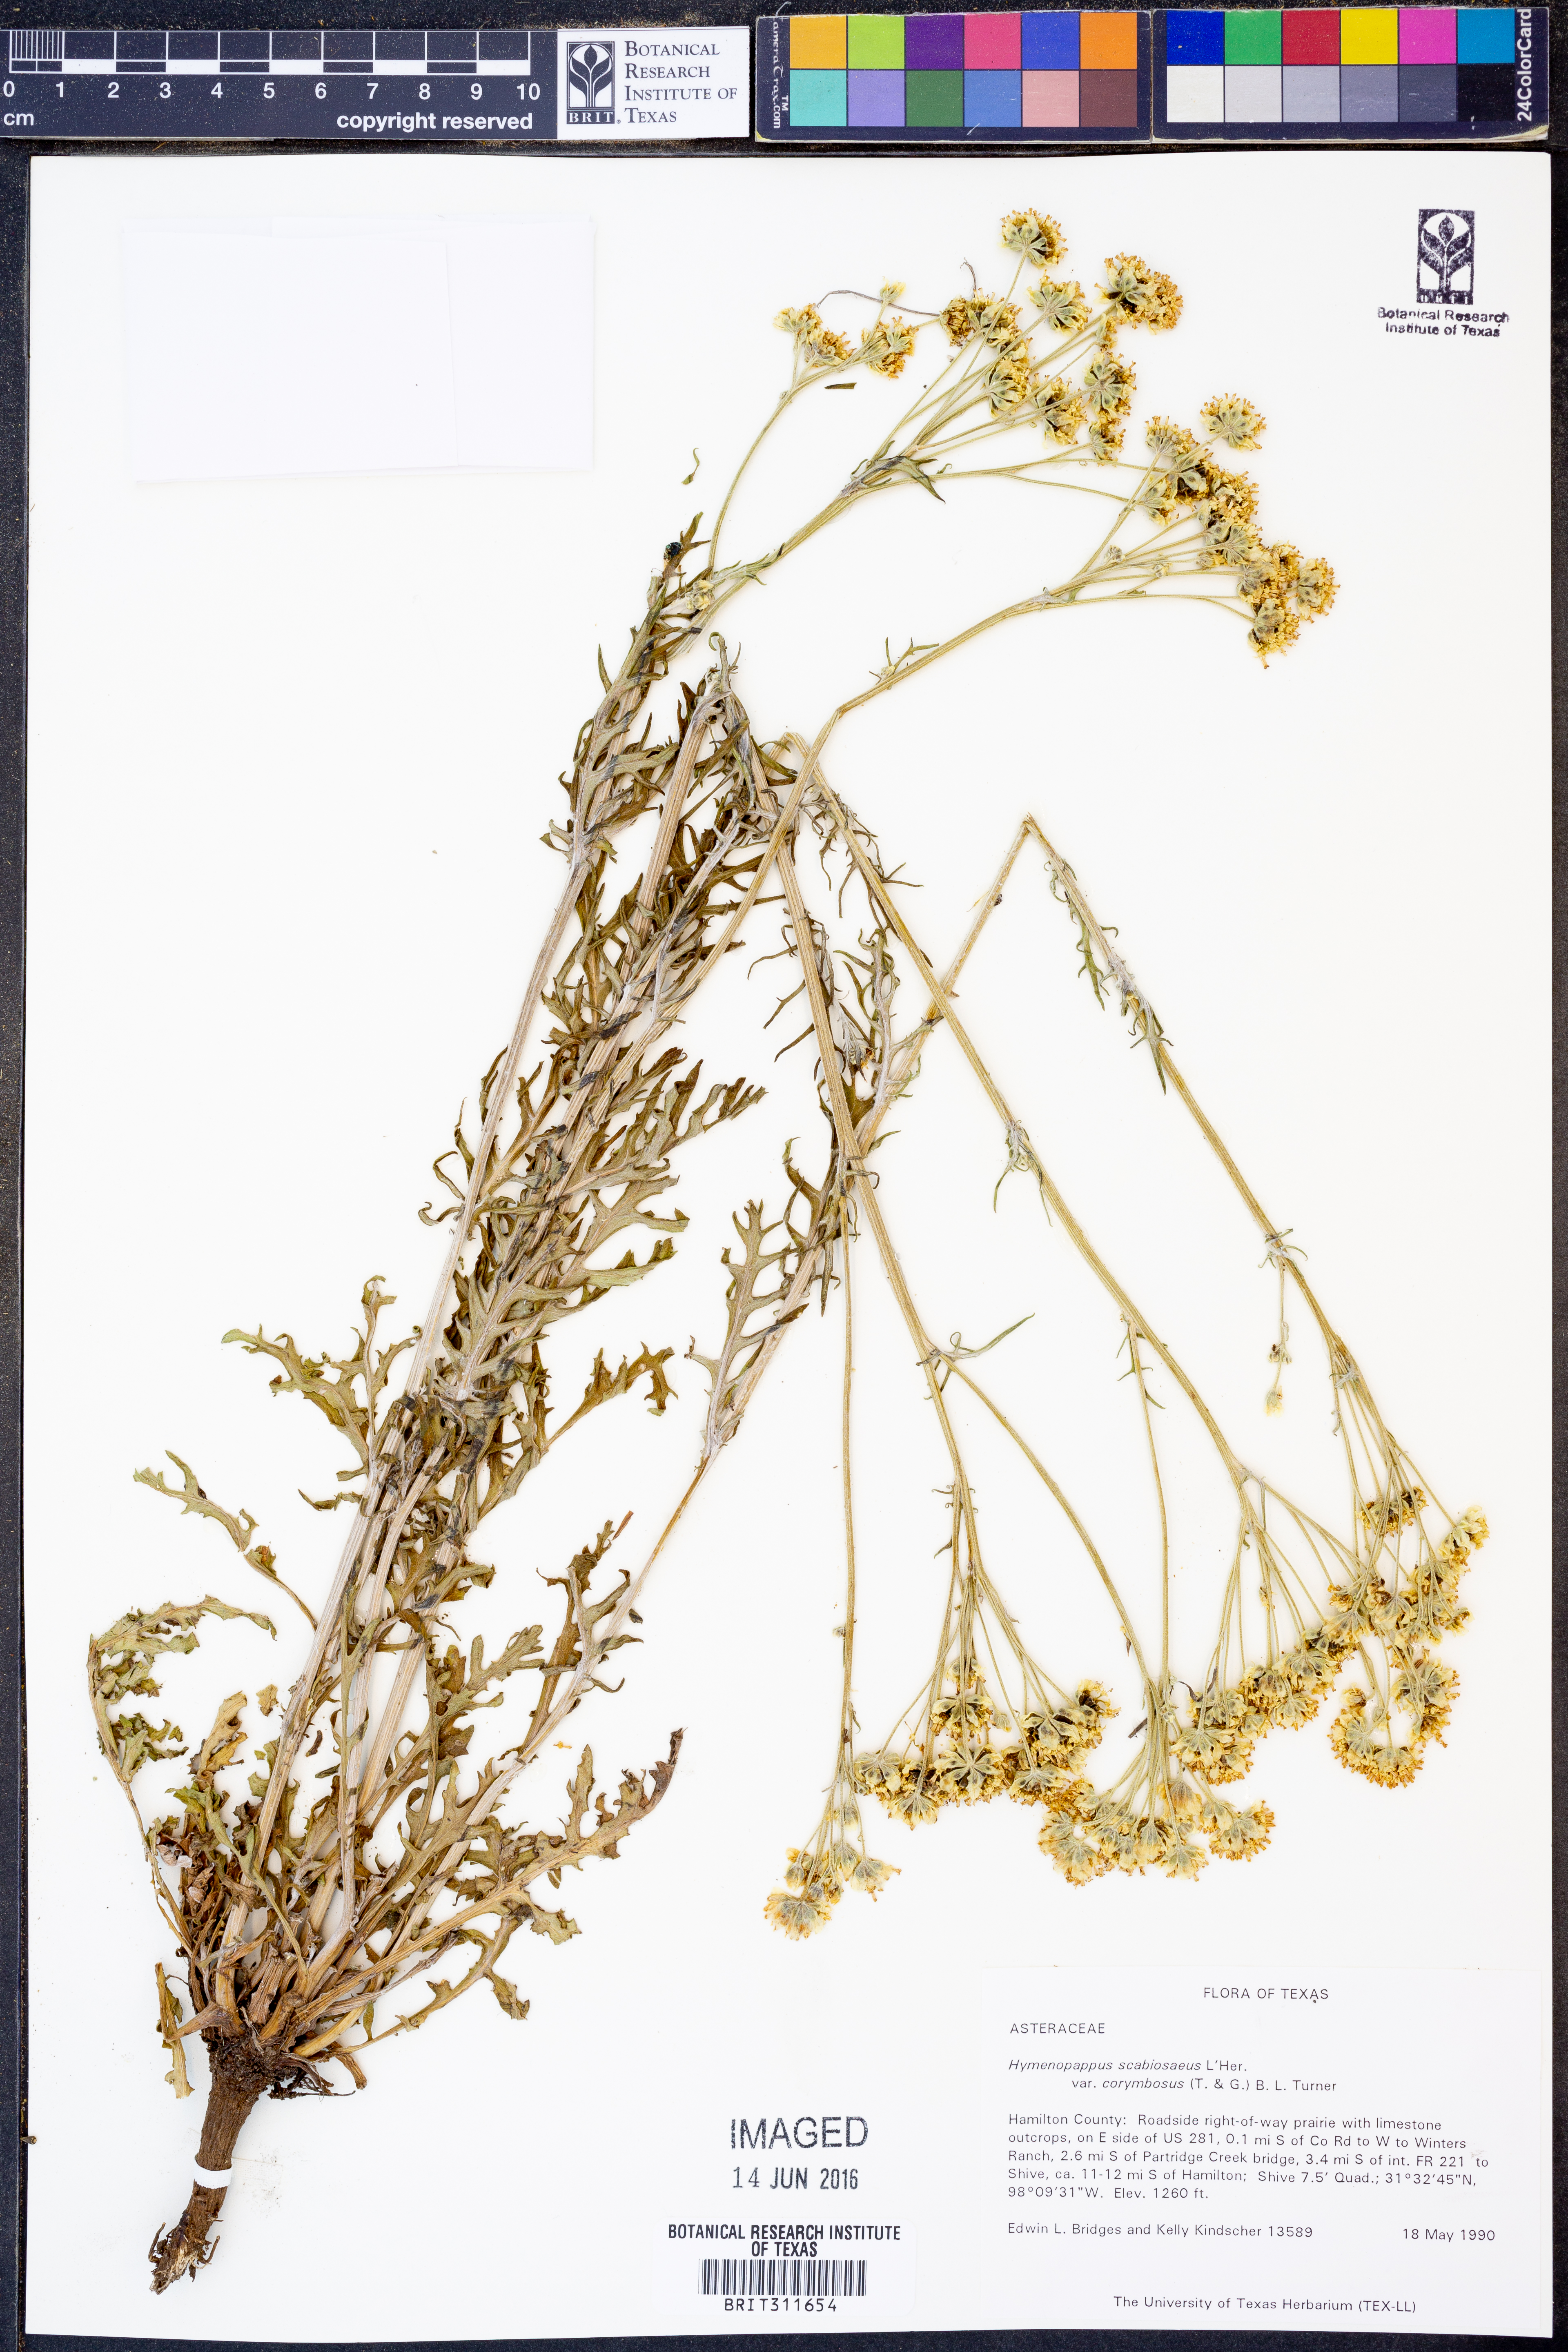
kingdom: Plantae
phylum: Tracheophyta
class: Magnoliopsida
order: Asterales
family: Asteraceae
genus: Hymenopappus
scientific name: Hymenopappus scabiosaeus
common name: Carolina woollywhite
